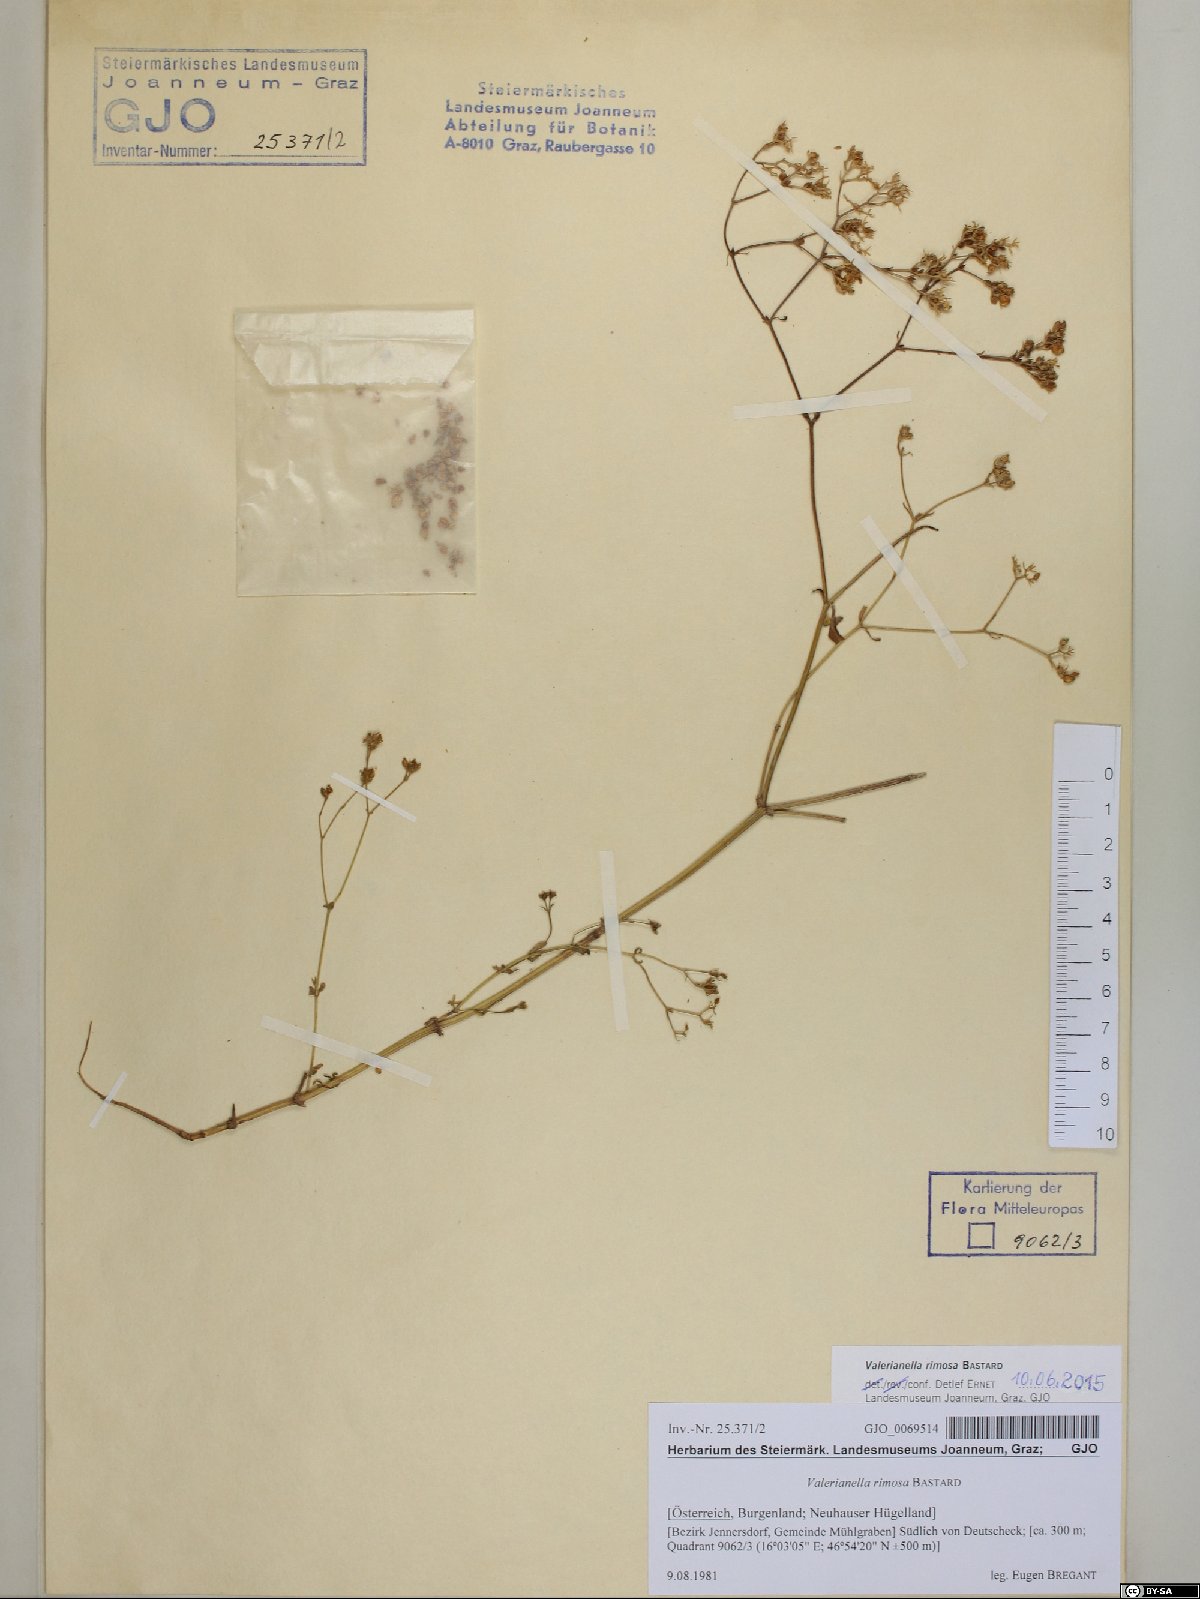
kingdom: Plantae
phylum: Tracheophyta
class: Magnoliopsida
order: Dipsacales
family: Caprifoliaceae
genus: Valerianella
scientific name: Valerianella rimosa
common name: Broad-fruited cornsalad
